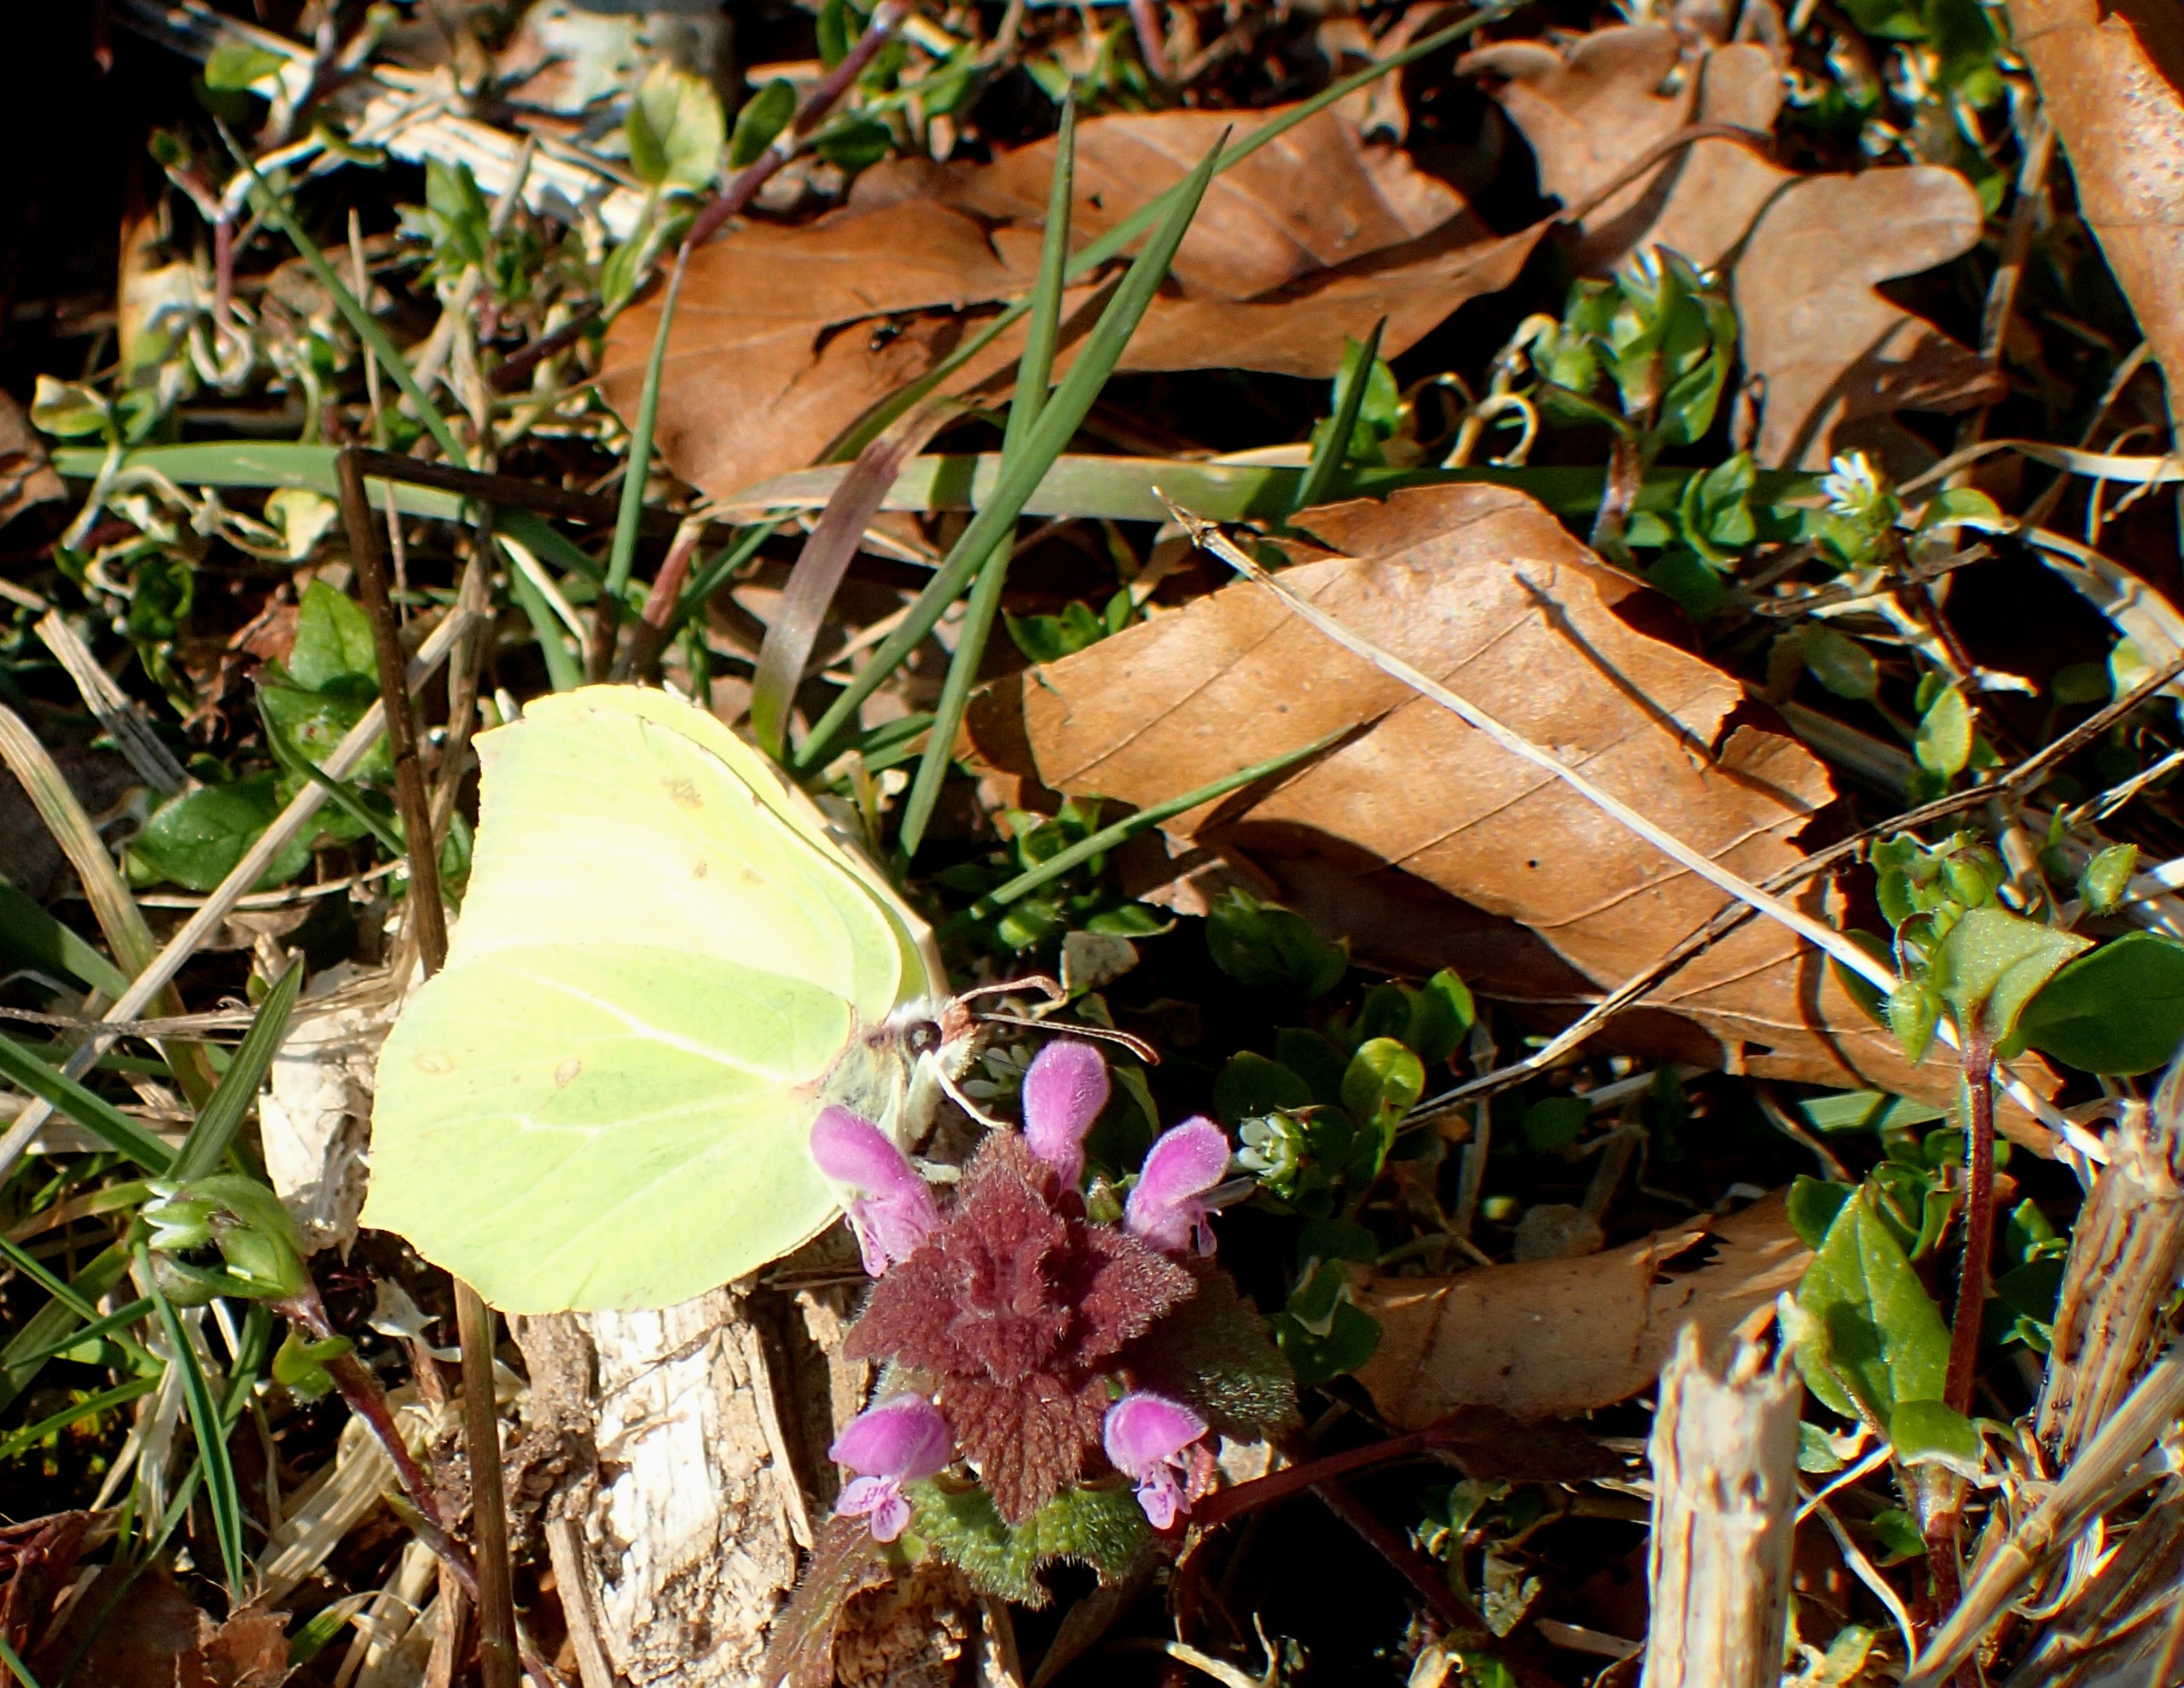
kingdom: Animalia
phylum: Arthropoda
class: Insecta
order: Lepidoptera
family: Pieridae
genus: Gonepteryx
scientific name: Gonepteryx rhamni
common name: Citronsommerfugl
